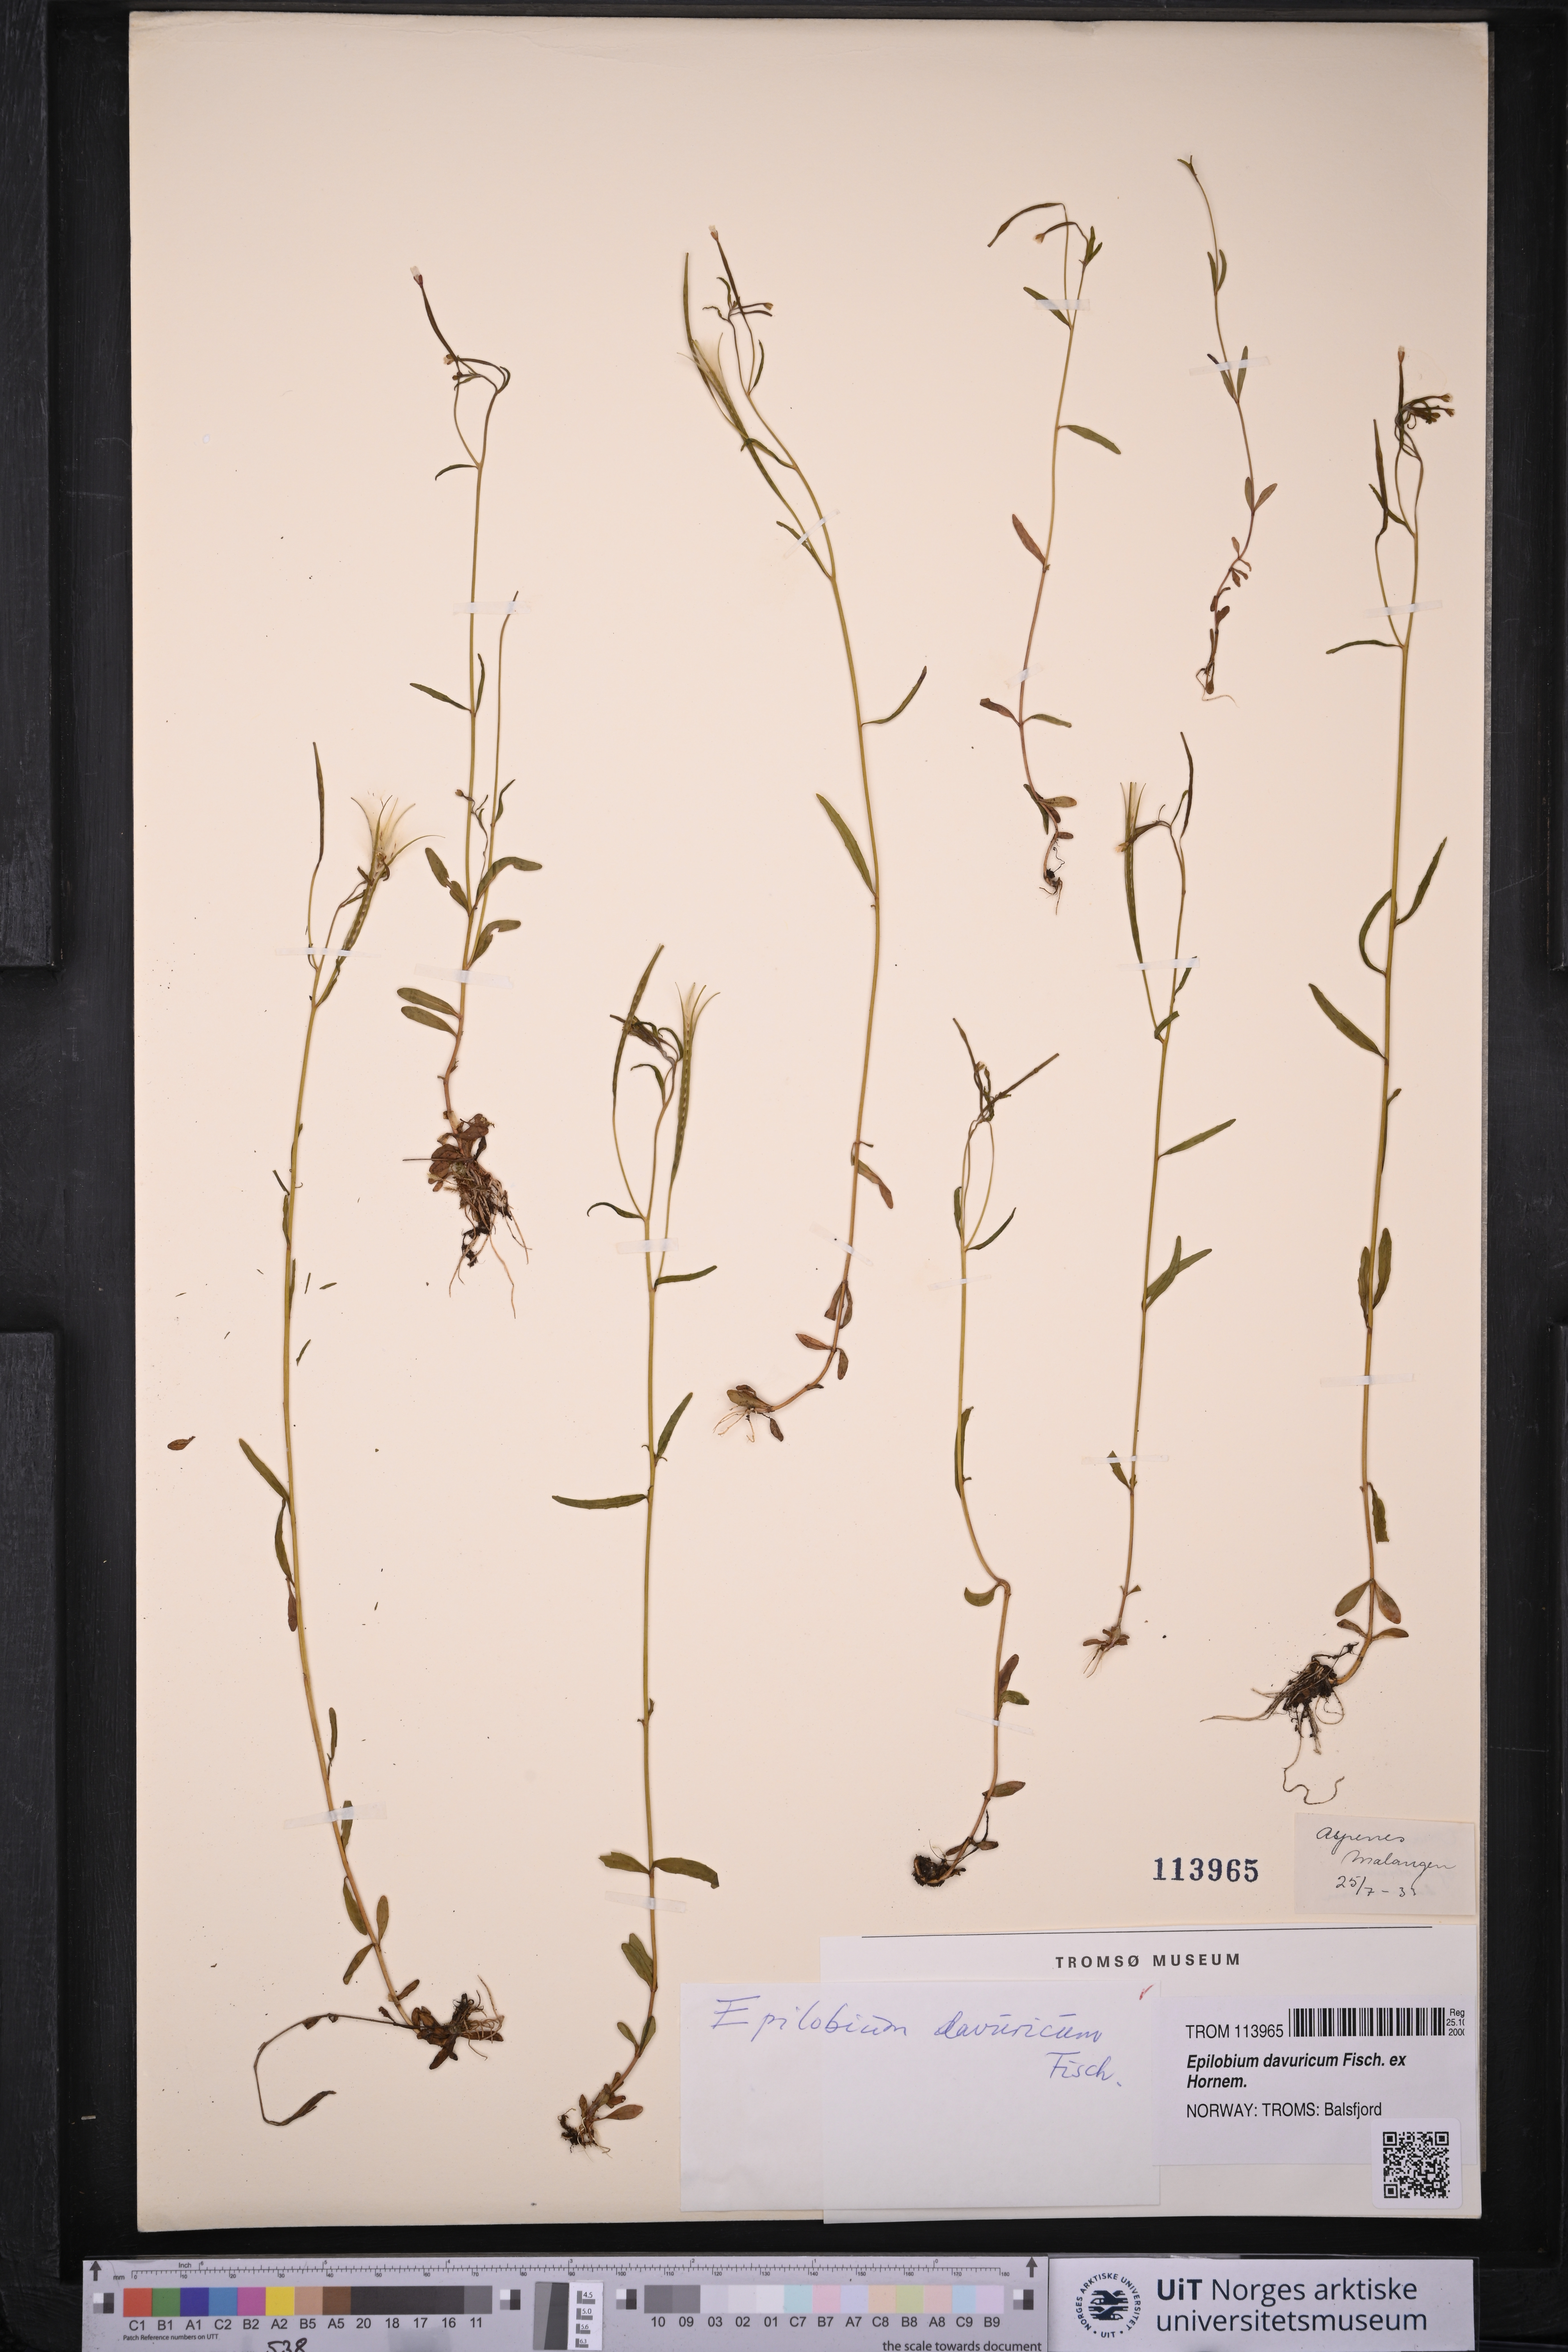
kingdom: Plantae
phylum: Tracheophyta
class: Magnoliopsida
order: Myrtales
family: Onagraceae
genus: Epilobium
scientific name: Epilobium davuricum
